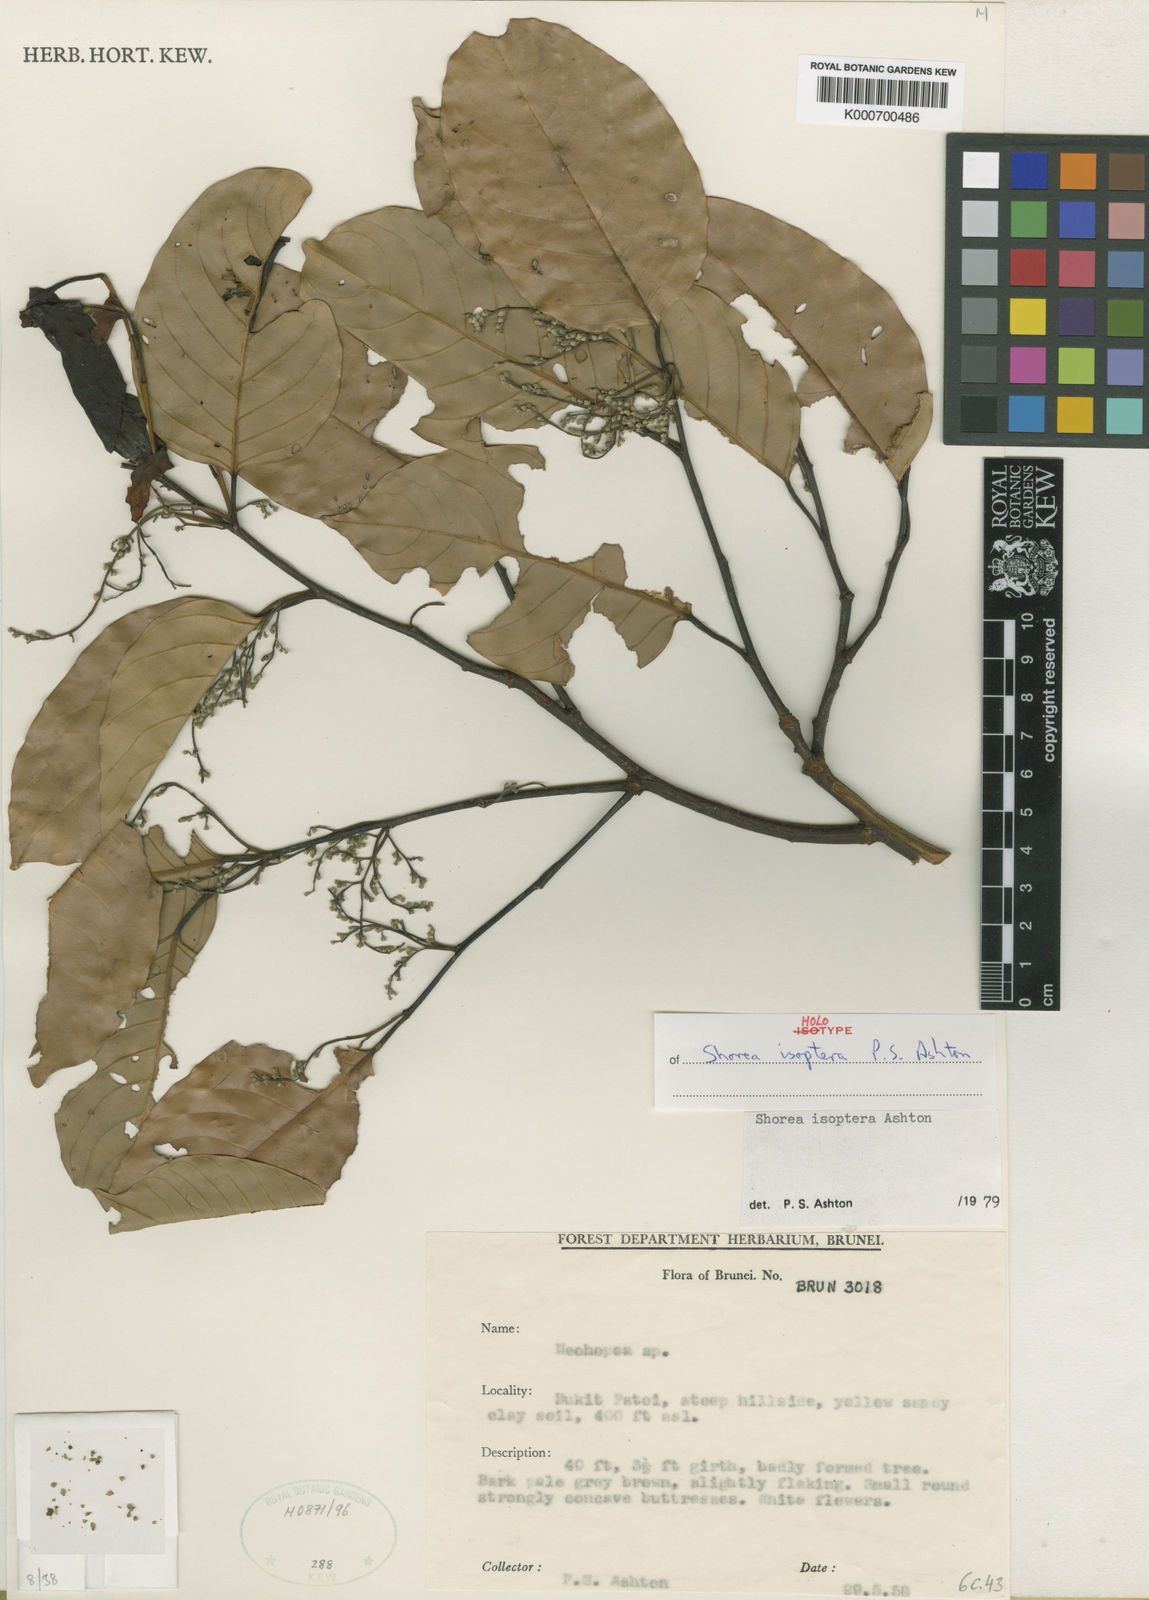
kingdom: Plantae
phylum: Tracheophyta
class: Magnoliopsida
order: Malvales
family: Dipterocarpaceae
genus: Neohopea
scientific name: Neohopea isoptera
